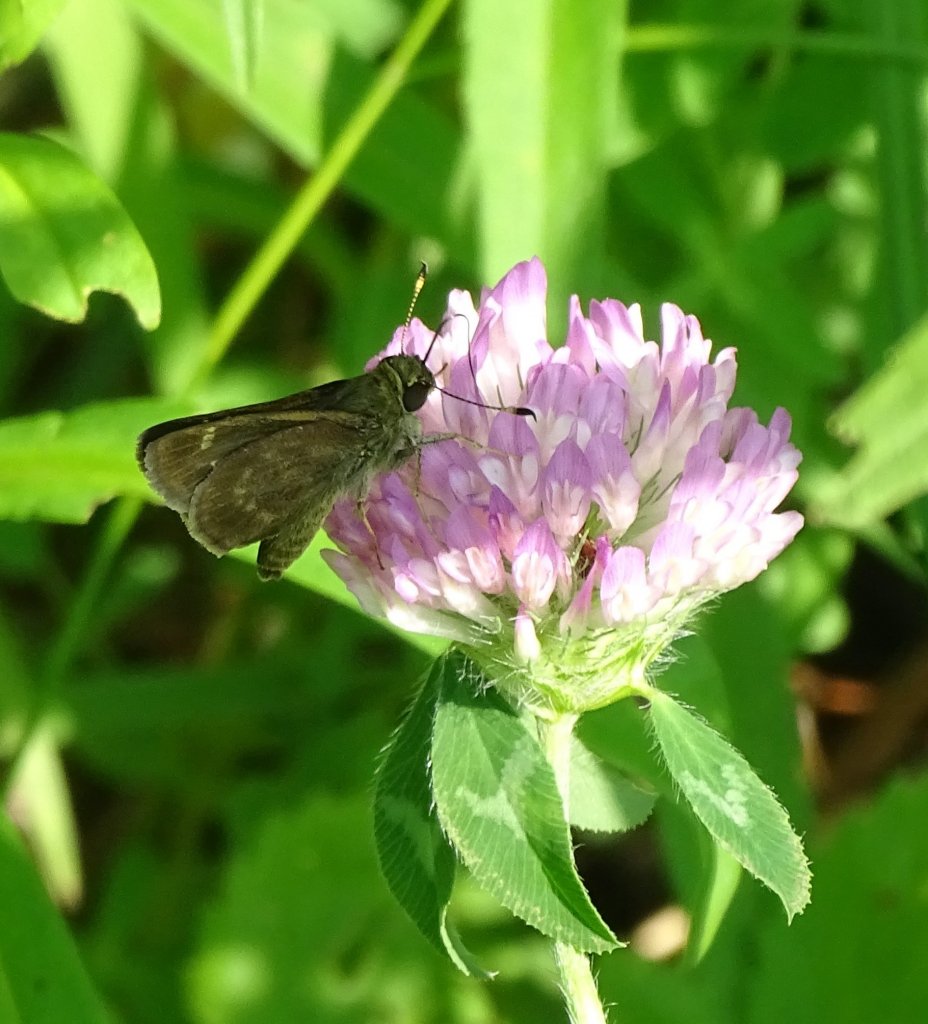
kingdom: Animalia
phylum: Arthropoda
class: Insecta
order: Lepidoptera
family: Hesperiidae
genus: Vernia
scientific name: Vernia verna
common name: Little Glassywing
